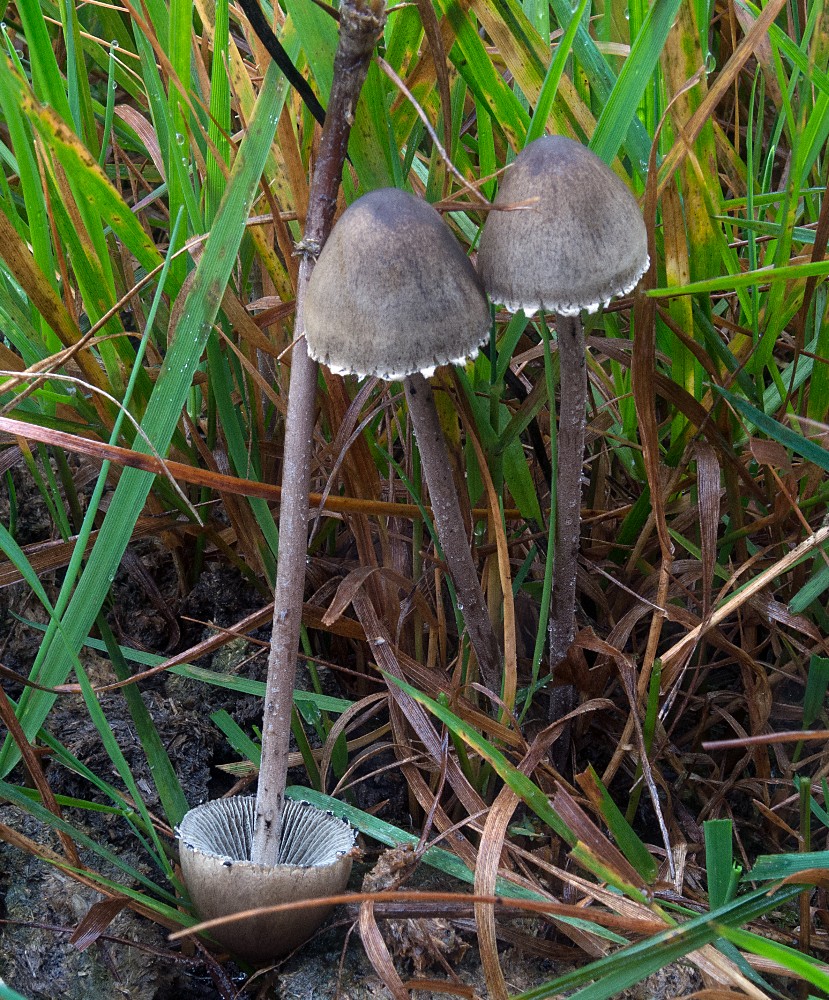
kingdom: Fungi
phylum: Basidiomycota
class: Agaricomycetes
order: Agaricales
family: Bolbitiaceae
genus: Panaeolus
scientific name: Panaeolus papilionaceus
